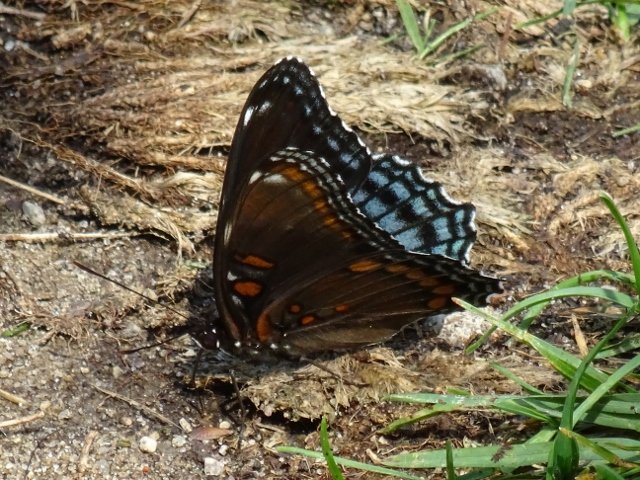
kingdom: Animalia
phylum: Arthropoda
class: Insecta
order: Lepidoptera
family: Nymphalidae
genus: Limenitis
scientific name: Limenitis astyanax
